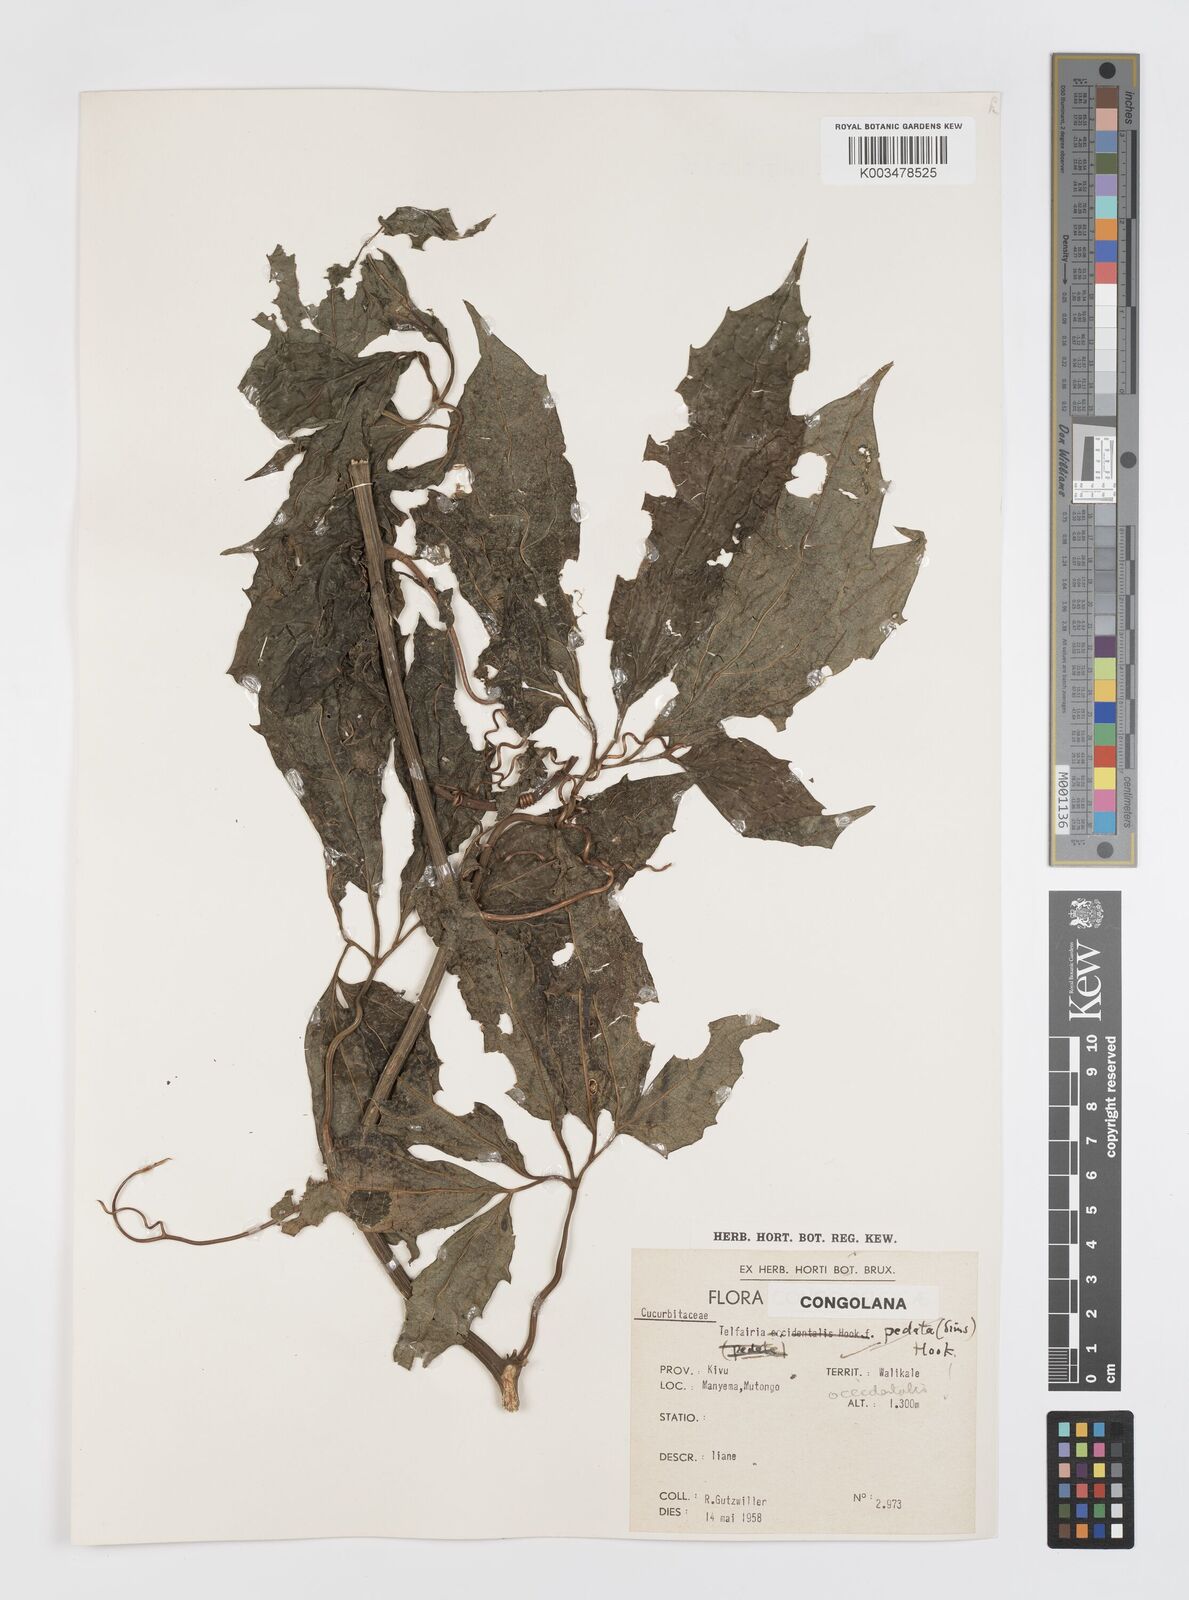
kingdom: Plantae
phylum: Tracheophyta
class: Magnoliopsida
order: Cucurbitales
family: Cucurbitaceae
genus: Telfairia
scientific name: Telfairia occidentalis
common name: Oysternut
